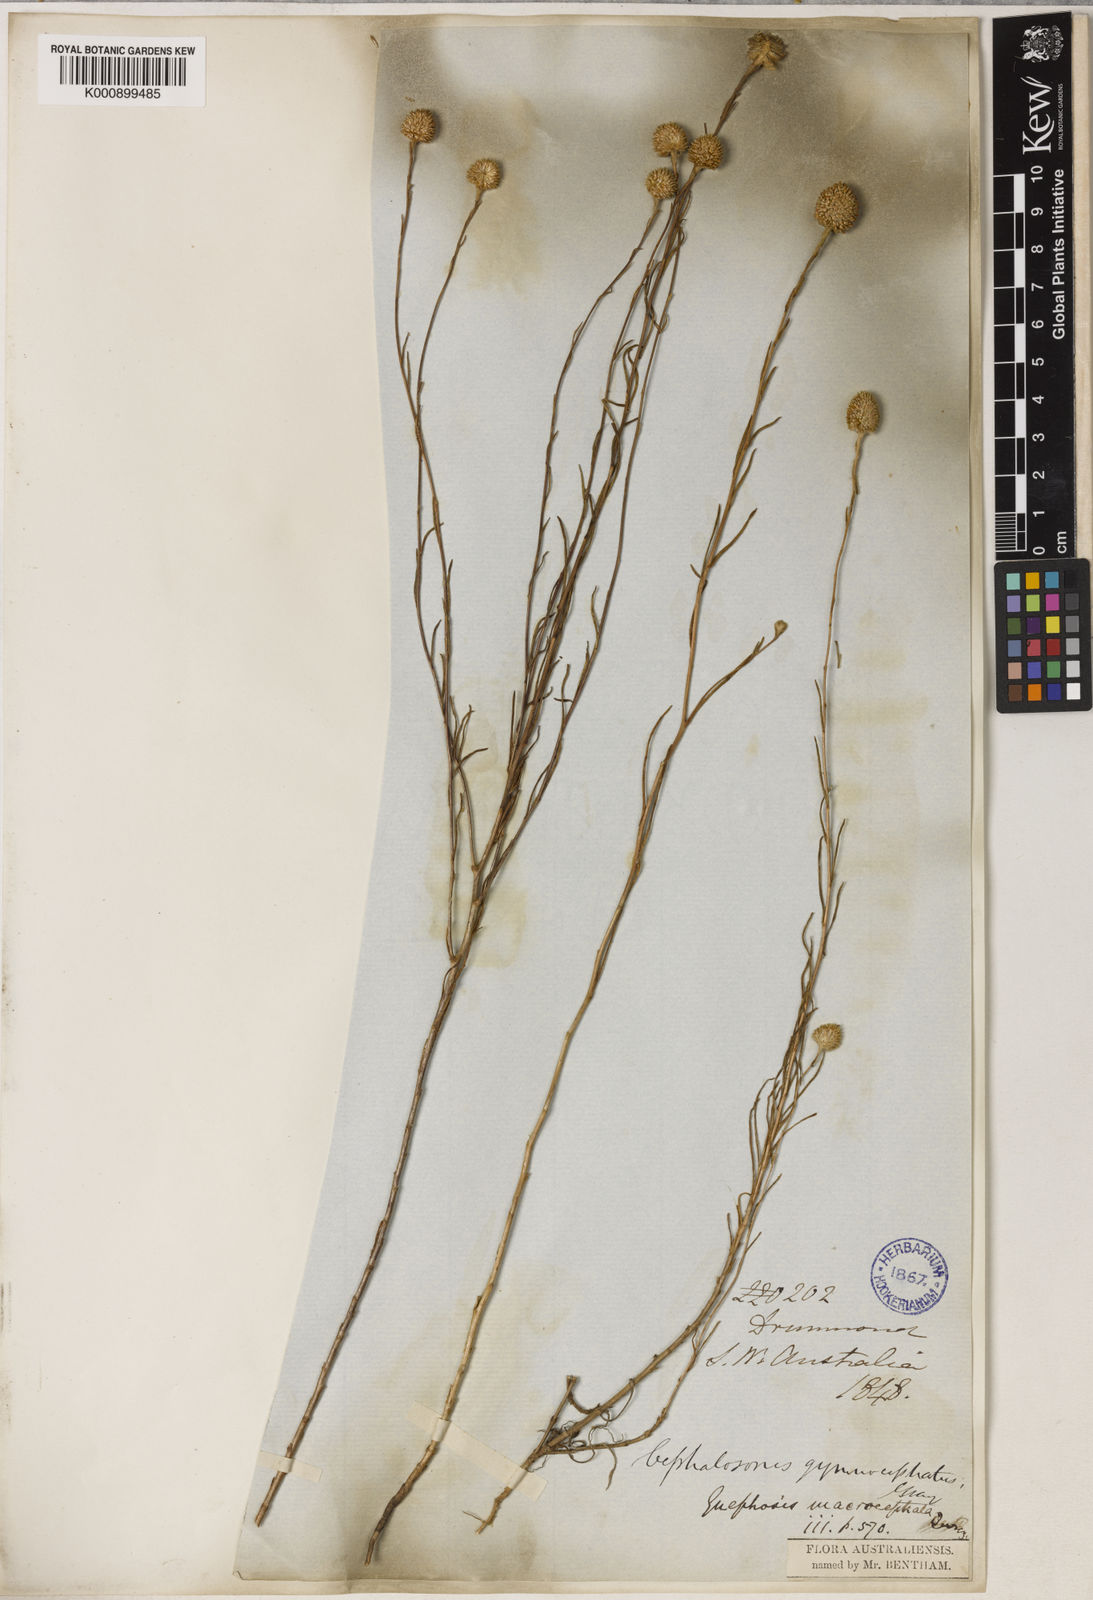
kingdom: Plantae
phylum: Tracheophyta
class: Magnoliopsida
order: Asterales
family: Asteraceae
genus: Gnephosis
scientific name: Gnephosis macrocephala
